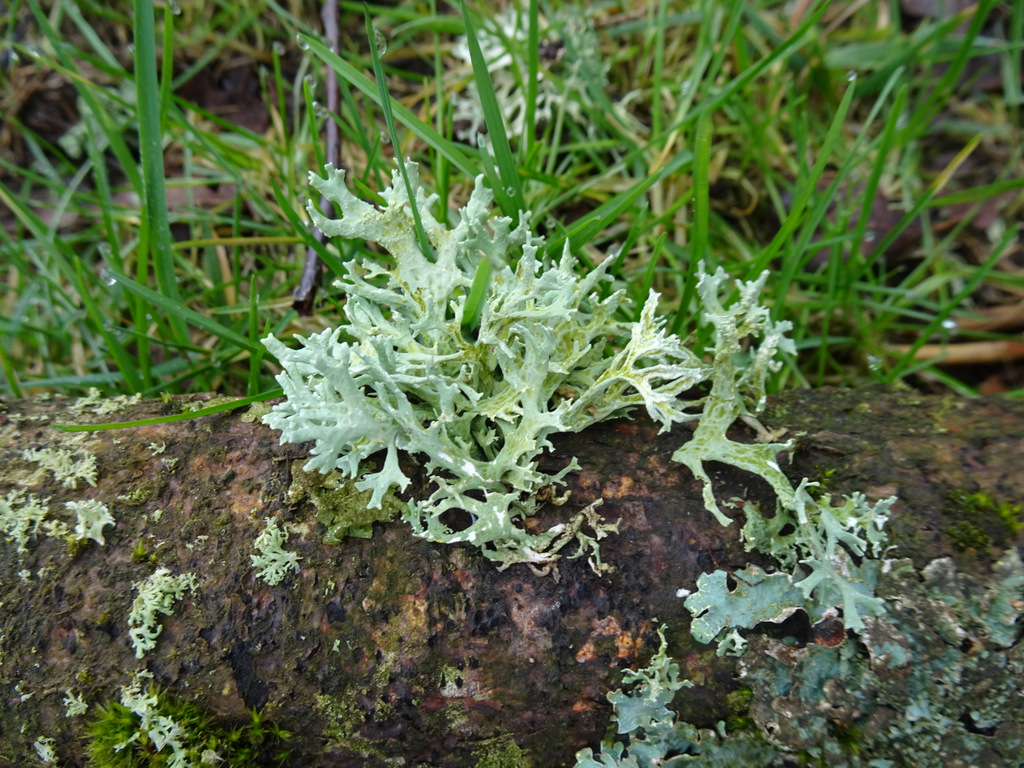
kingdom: Fungi
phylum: Ascomycota
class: Lecanoromycetes
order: Lecanorales
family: Parmeliaceae
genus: Evernia
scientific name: Evernia prunastri
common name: almindelig slåenlav
